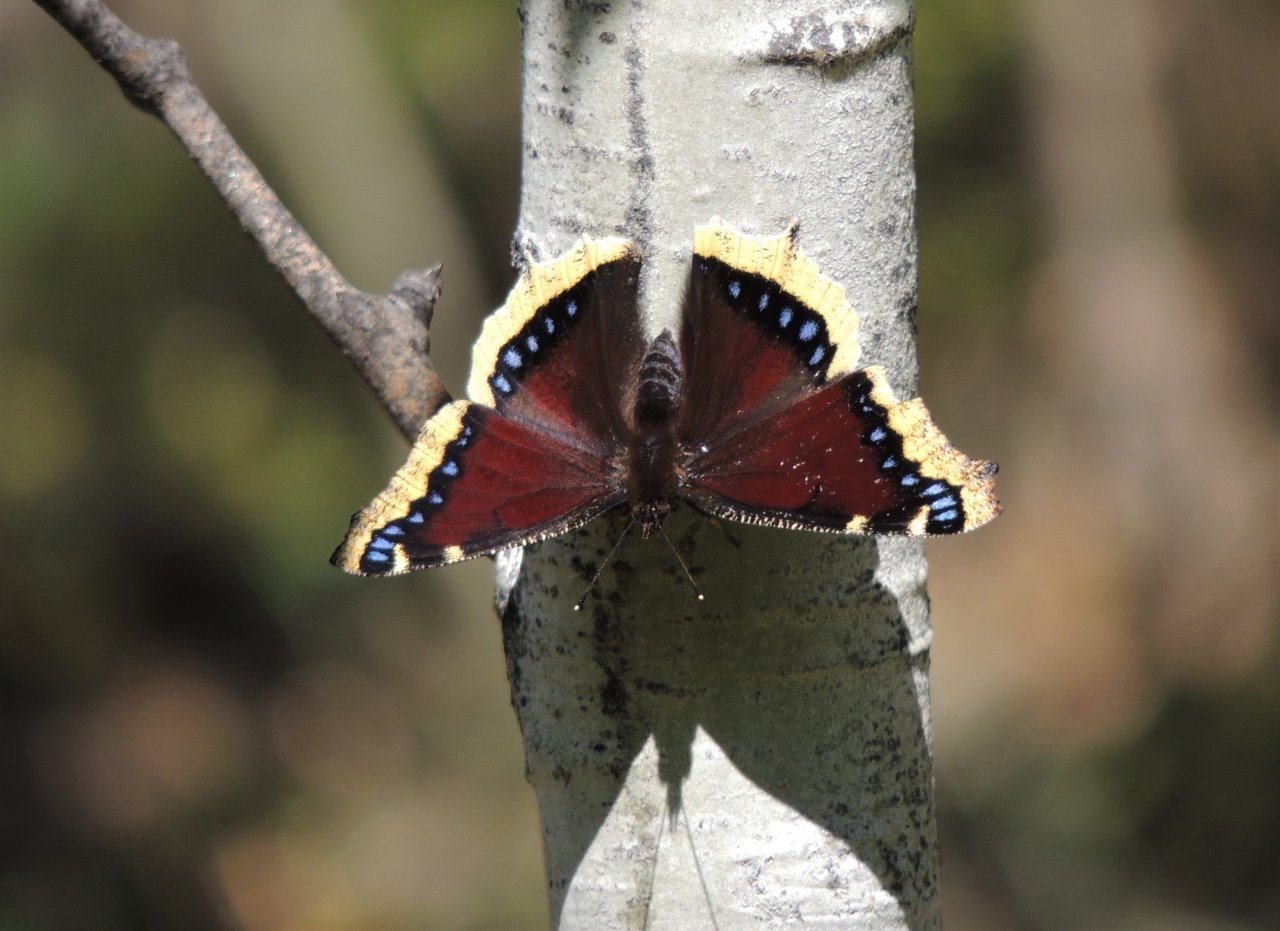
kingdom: Animalia
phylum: Arthropoda
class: Insecta
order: Lepidoptera
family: Nymphalidae
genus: Nymphalis
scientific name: Nymphalis antiopa
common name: Mourning Cloak
